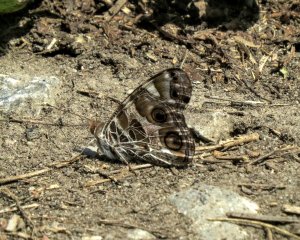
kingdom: Animalia
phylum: Arthropoda
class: Insecta
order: Lepidoptera
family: Nymphalidae
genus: Vanessa
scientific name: Vanessa virginiensis
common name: American Lady
